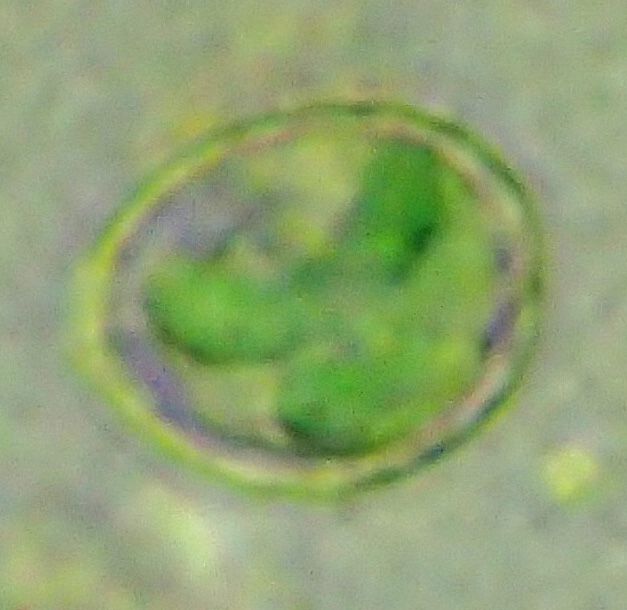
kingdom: Chromista
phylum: Cercozoa
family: Paulinellideae
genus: Paulinella
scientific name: Paulinella chromatophora
